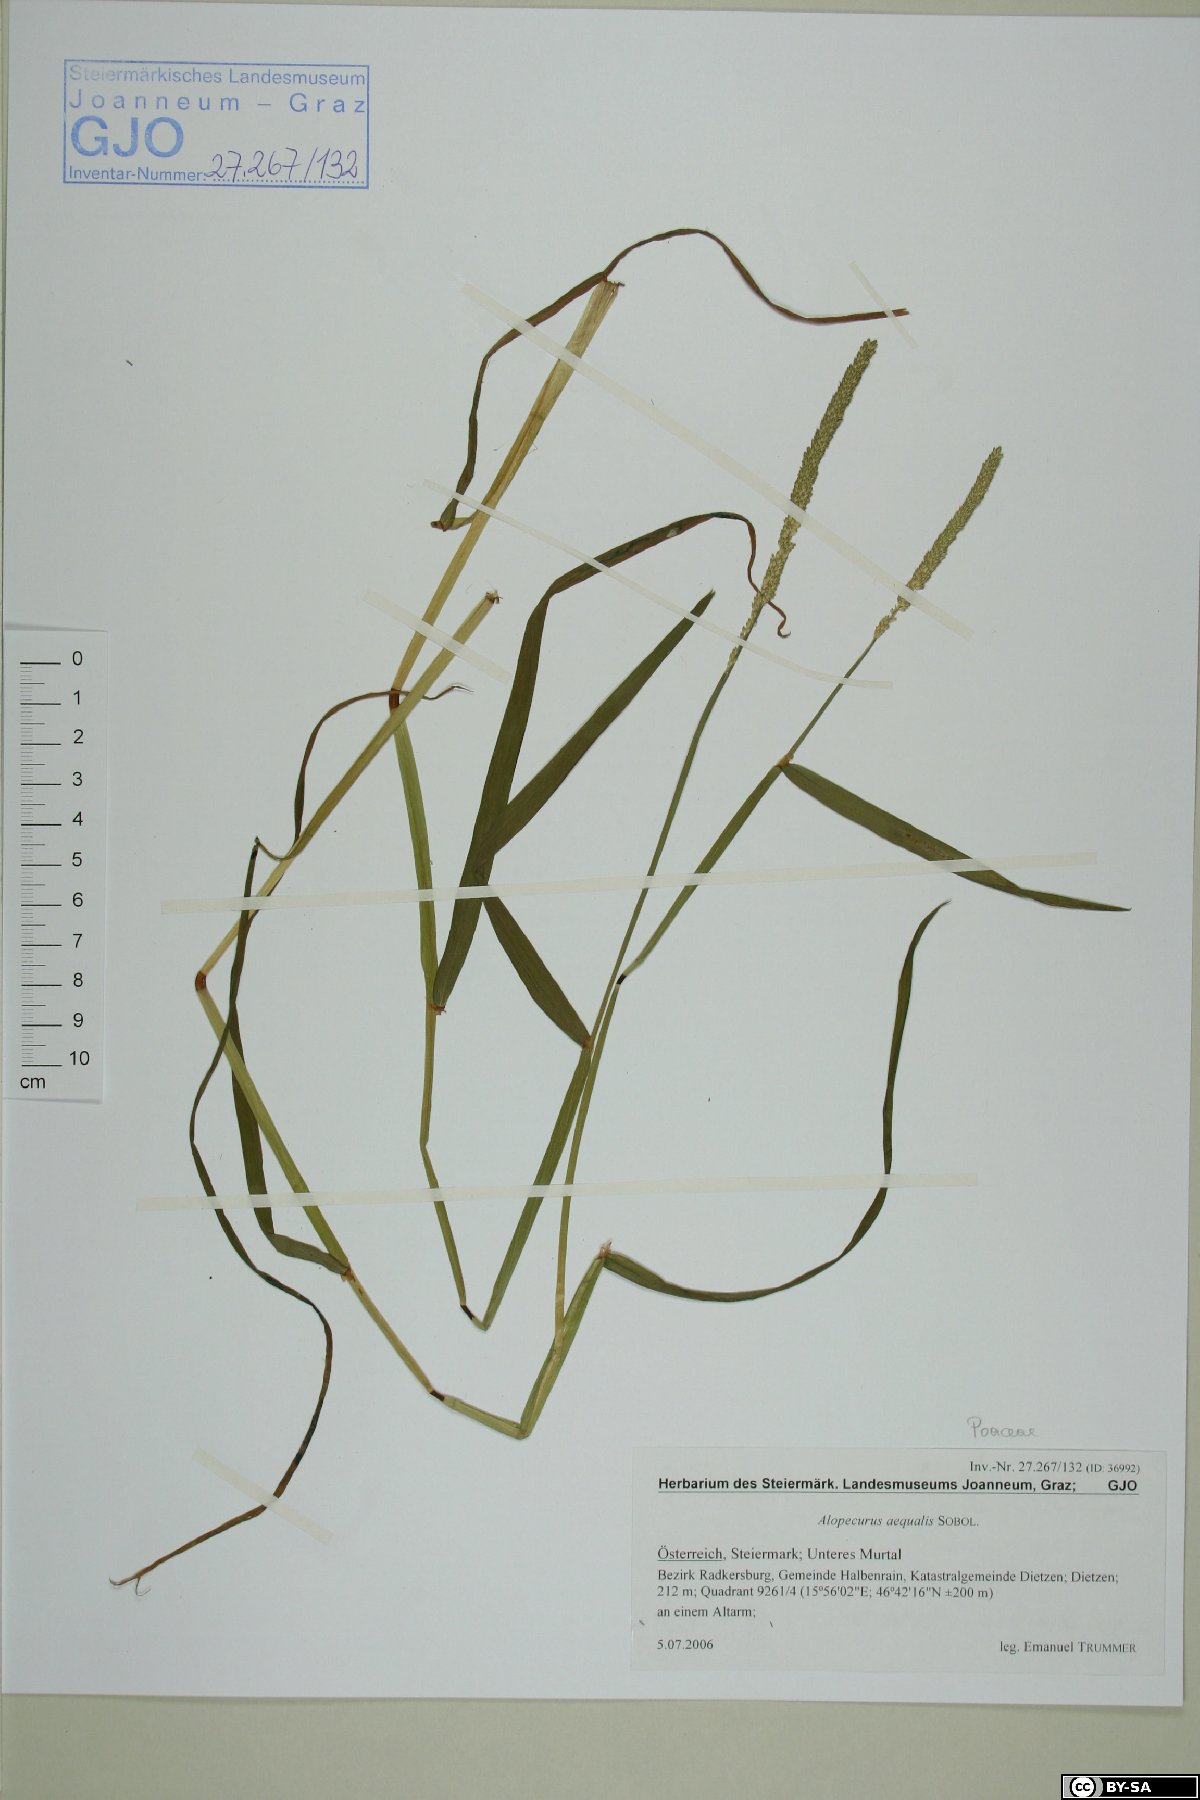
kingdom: Plantae
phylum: Tracheophyta
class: Liliopsida
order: Poales
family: Poaceae
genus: Alopecurus
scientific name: Alopecurus aequalis
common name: Orange foxtail
